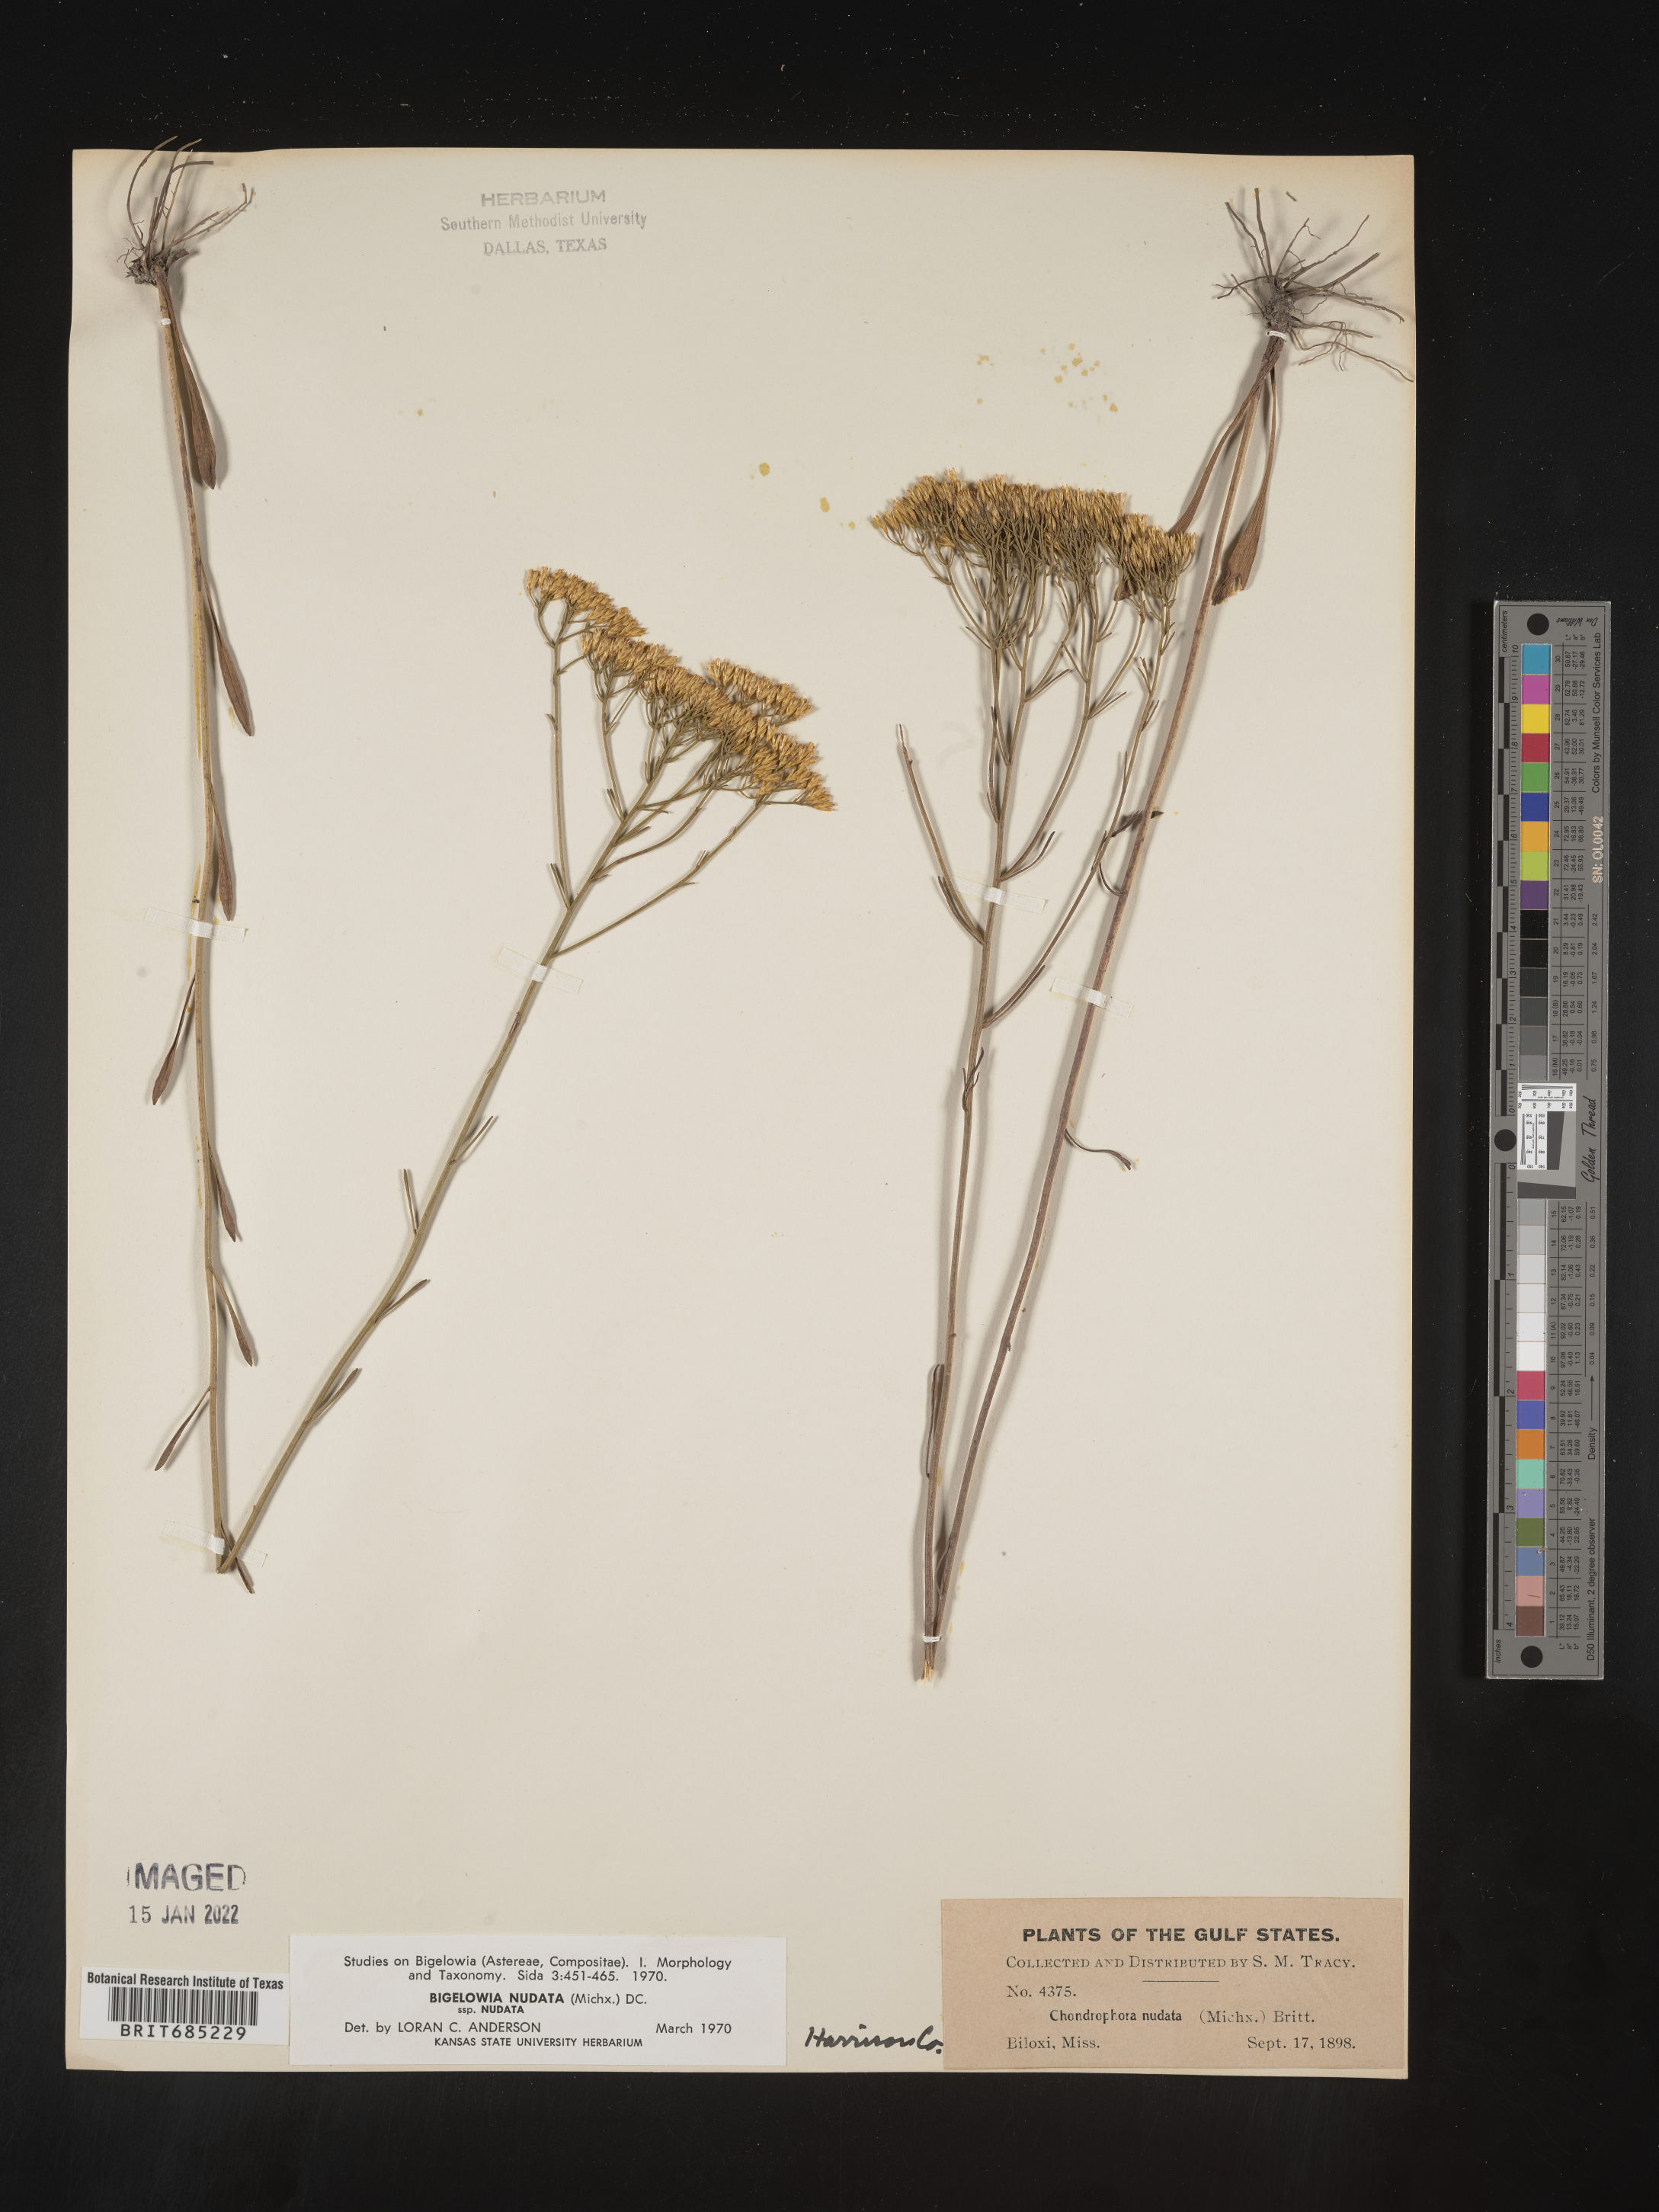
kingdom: Plantae
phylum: Tracheophyta
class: Magnoliopsida
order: Asterales
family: Asteraceae
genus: Bigelowia
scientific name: Bigelowia nudata
